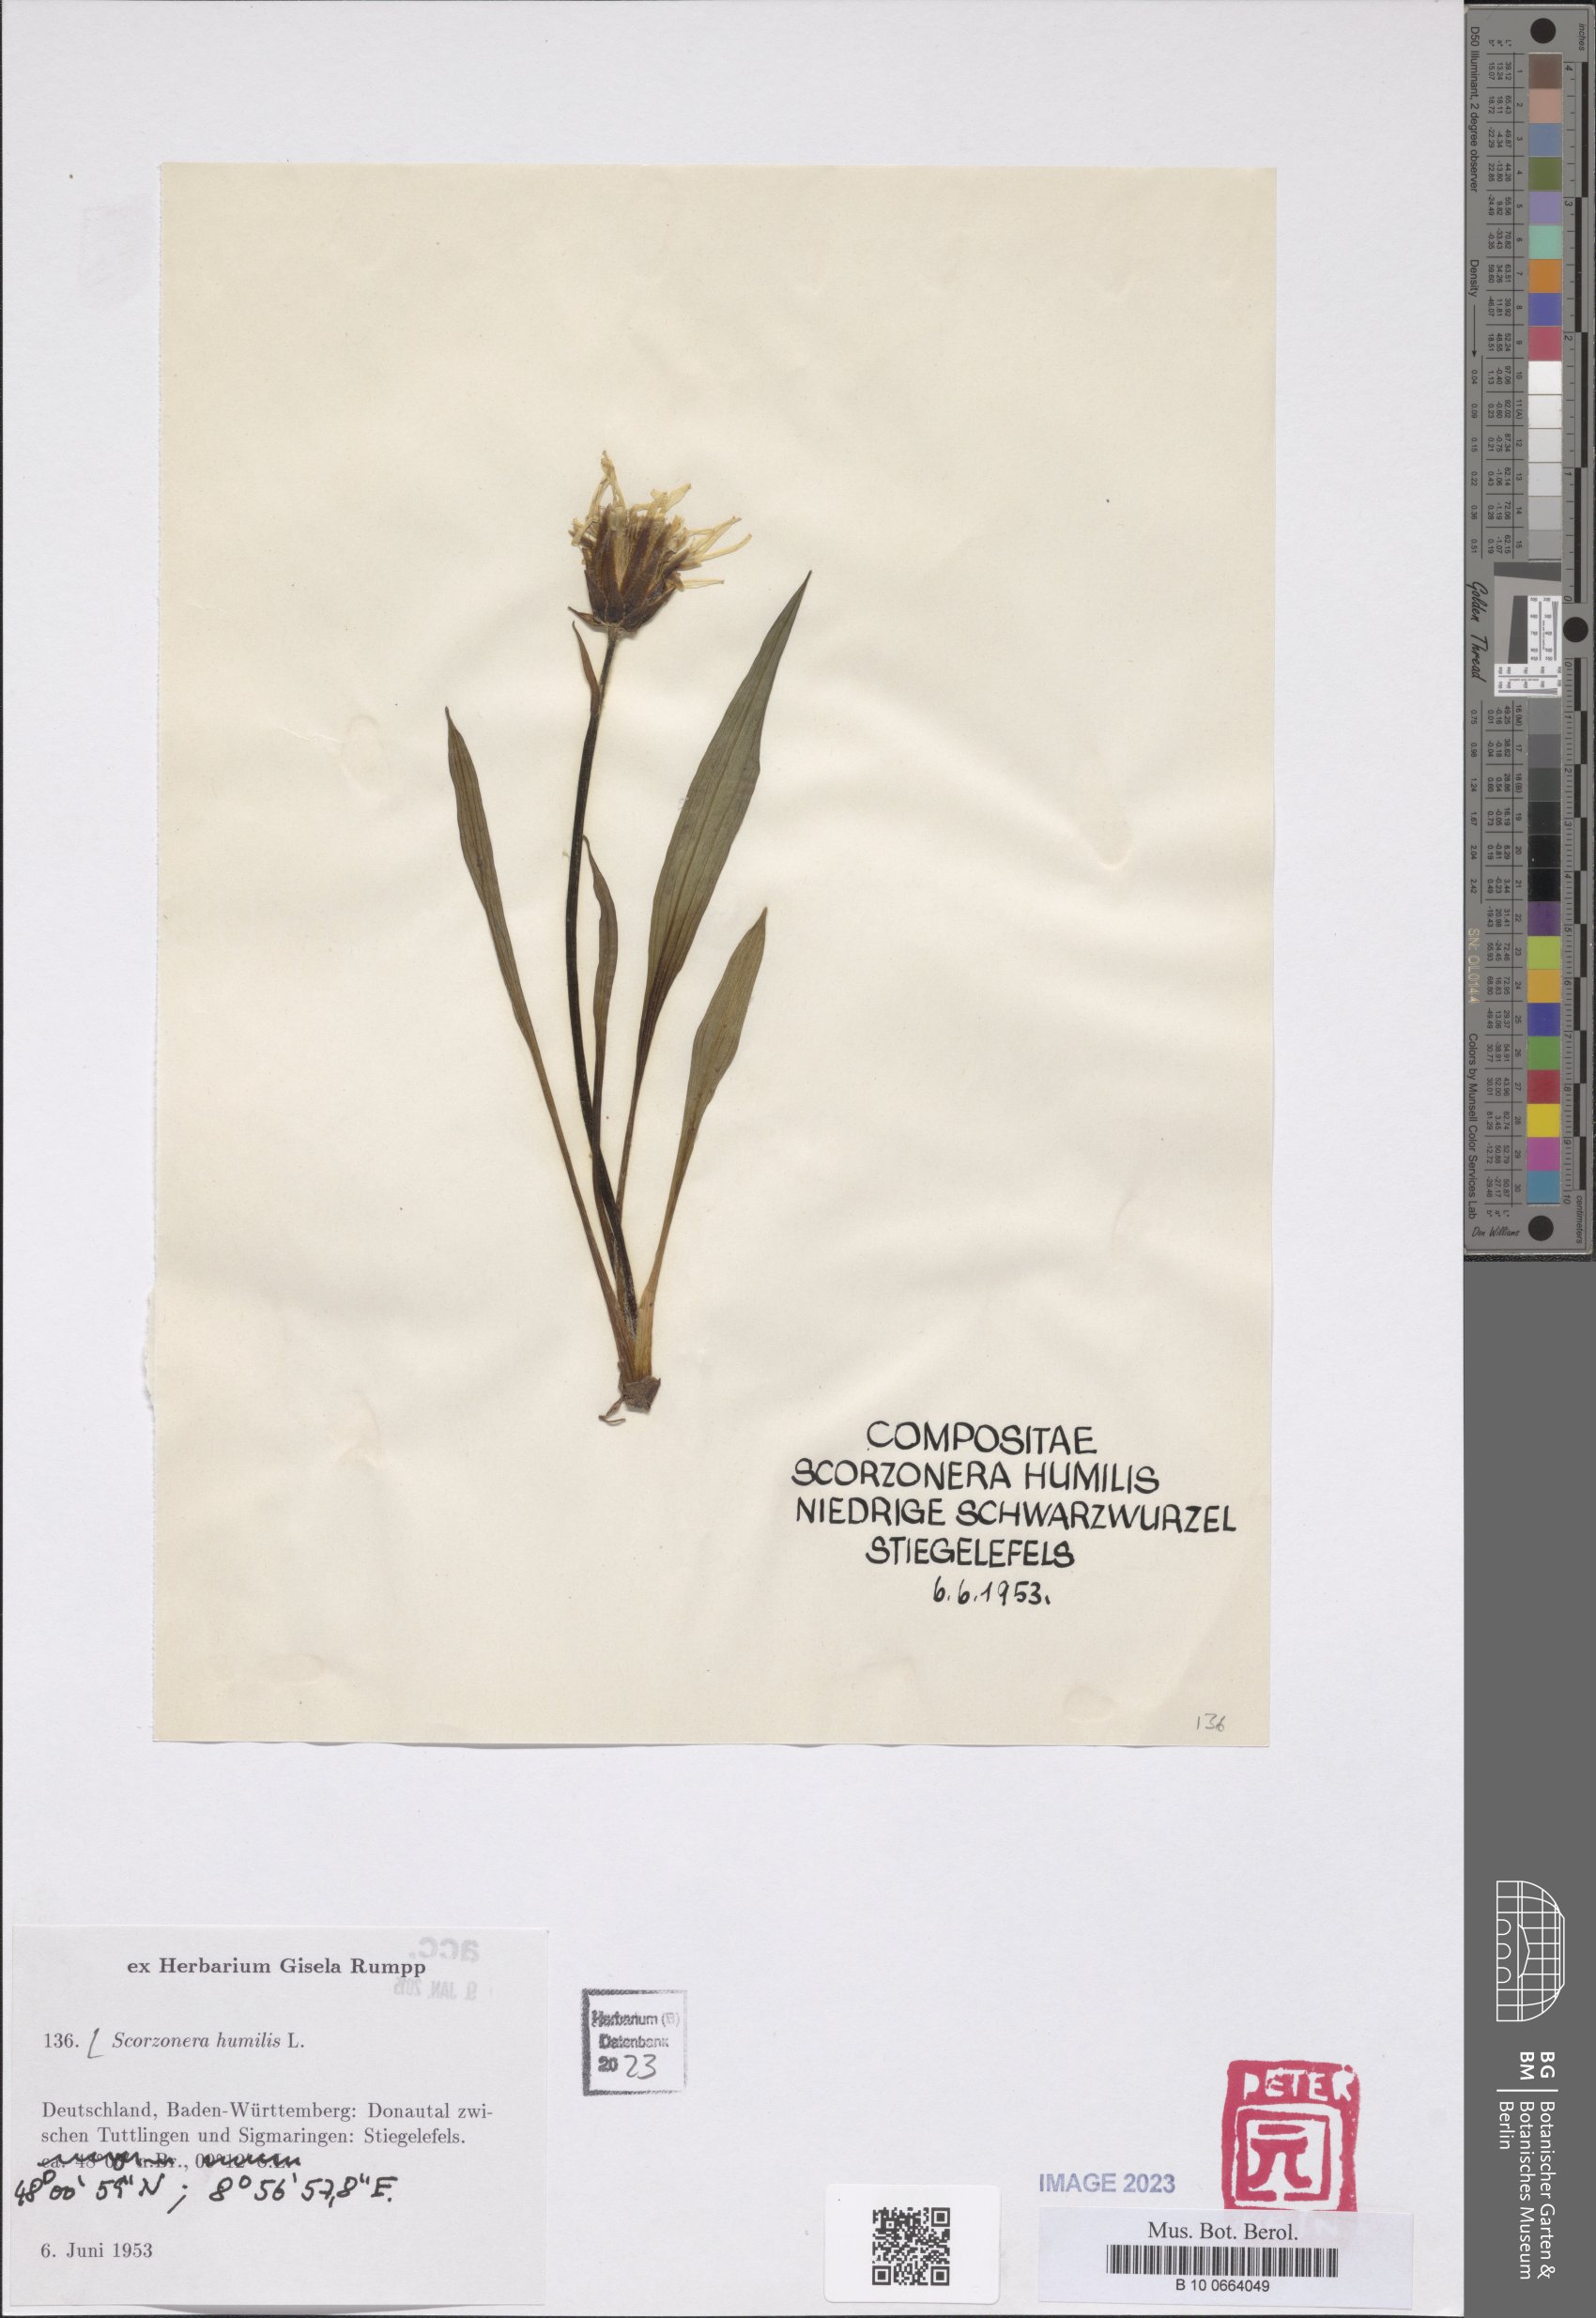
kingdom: Plantae
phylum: Tracheophyta
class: Magnoliopsida
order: Asterales
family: Asteraceae
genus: Scorzonera
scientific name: Scorzonera humilis
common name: Viper's-grass
